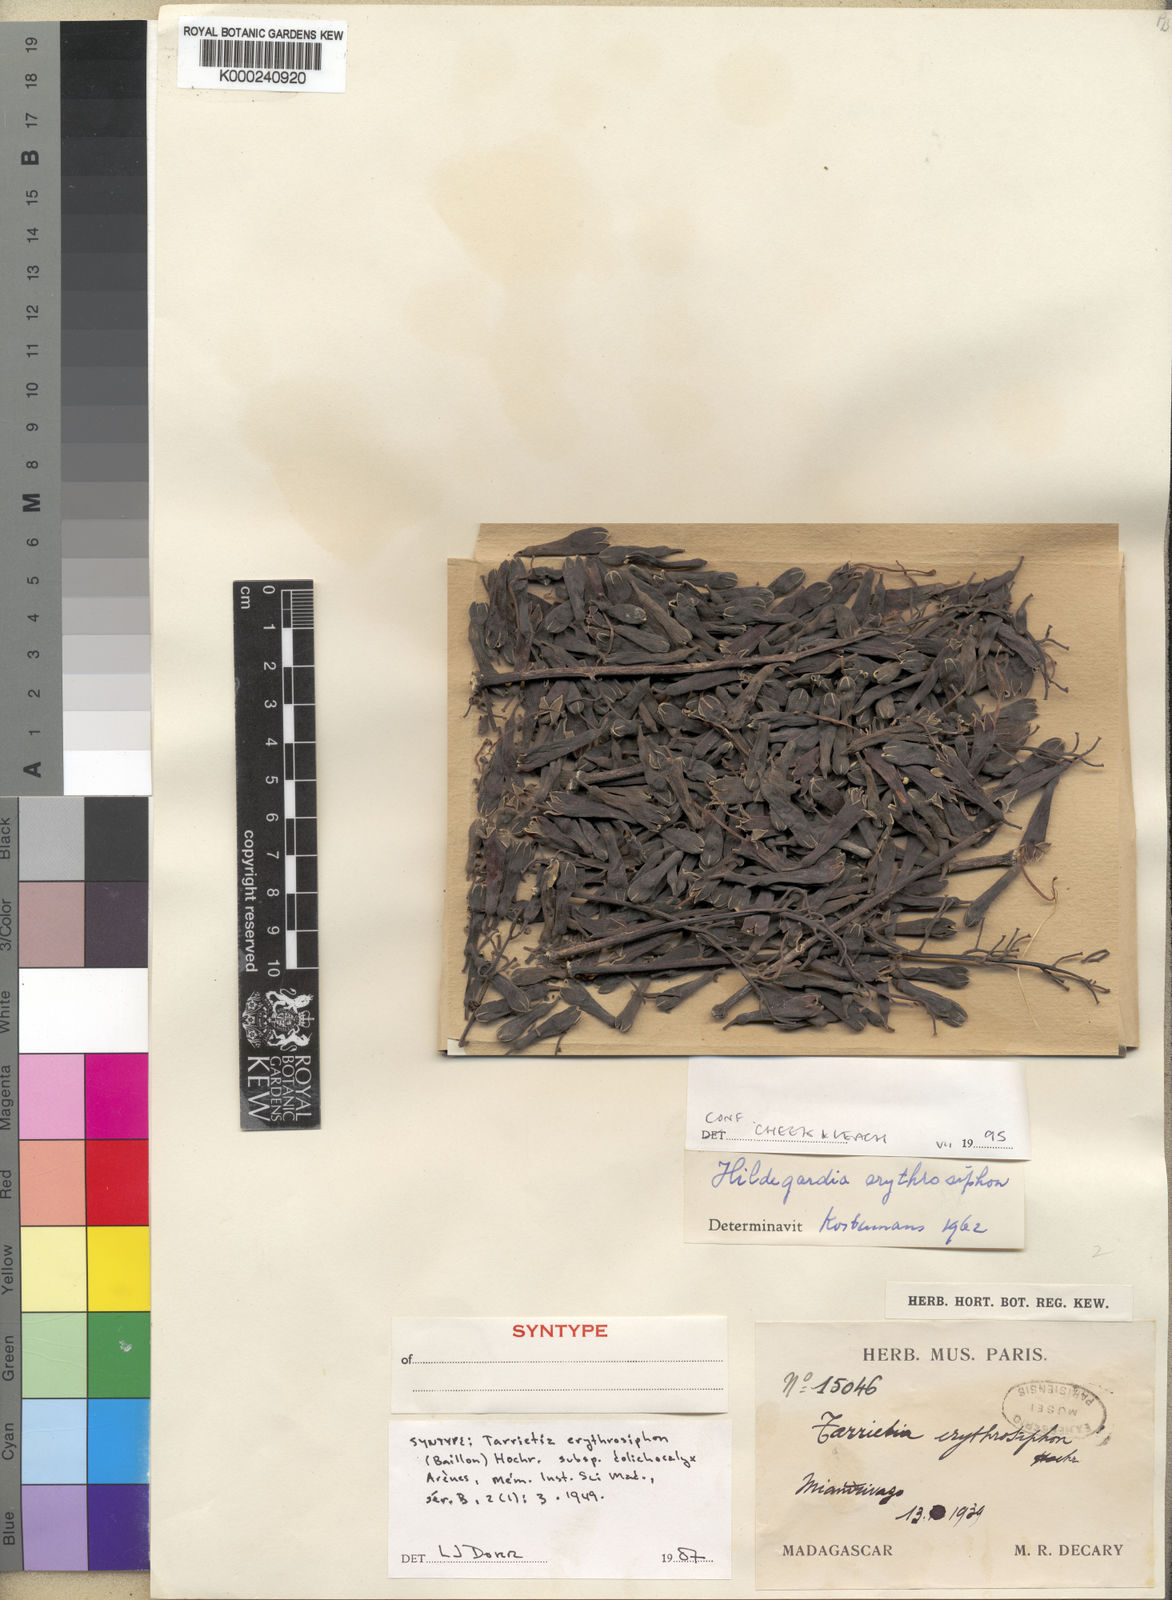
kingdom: Plantae
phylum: Tracheophyta
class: Magnoliopsida
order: Malvales
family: Malvaceae
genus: Hildegardia
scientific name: Hildegardia erythrosiphon
